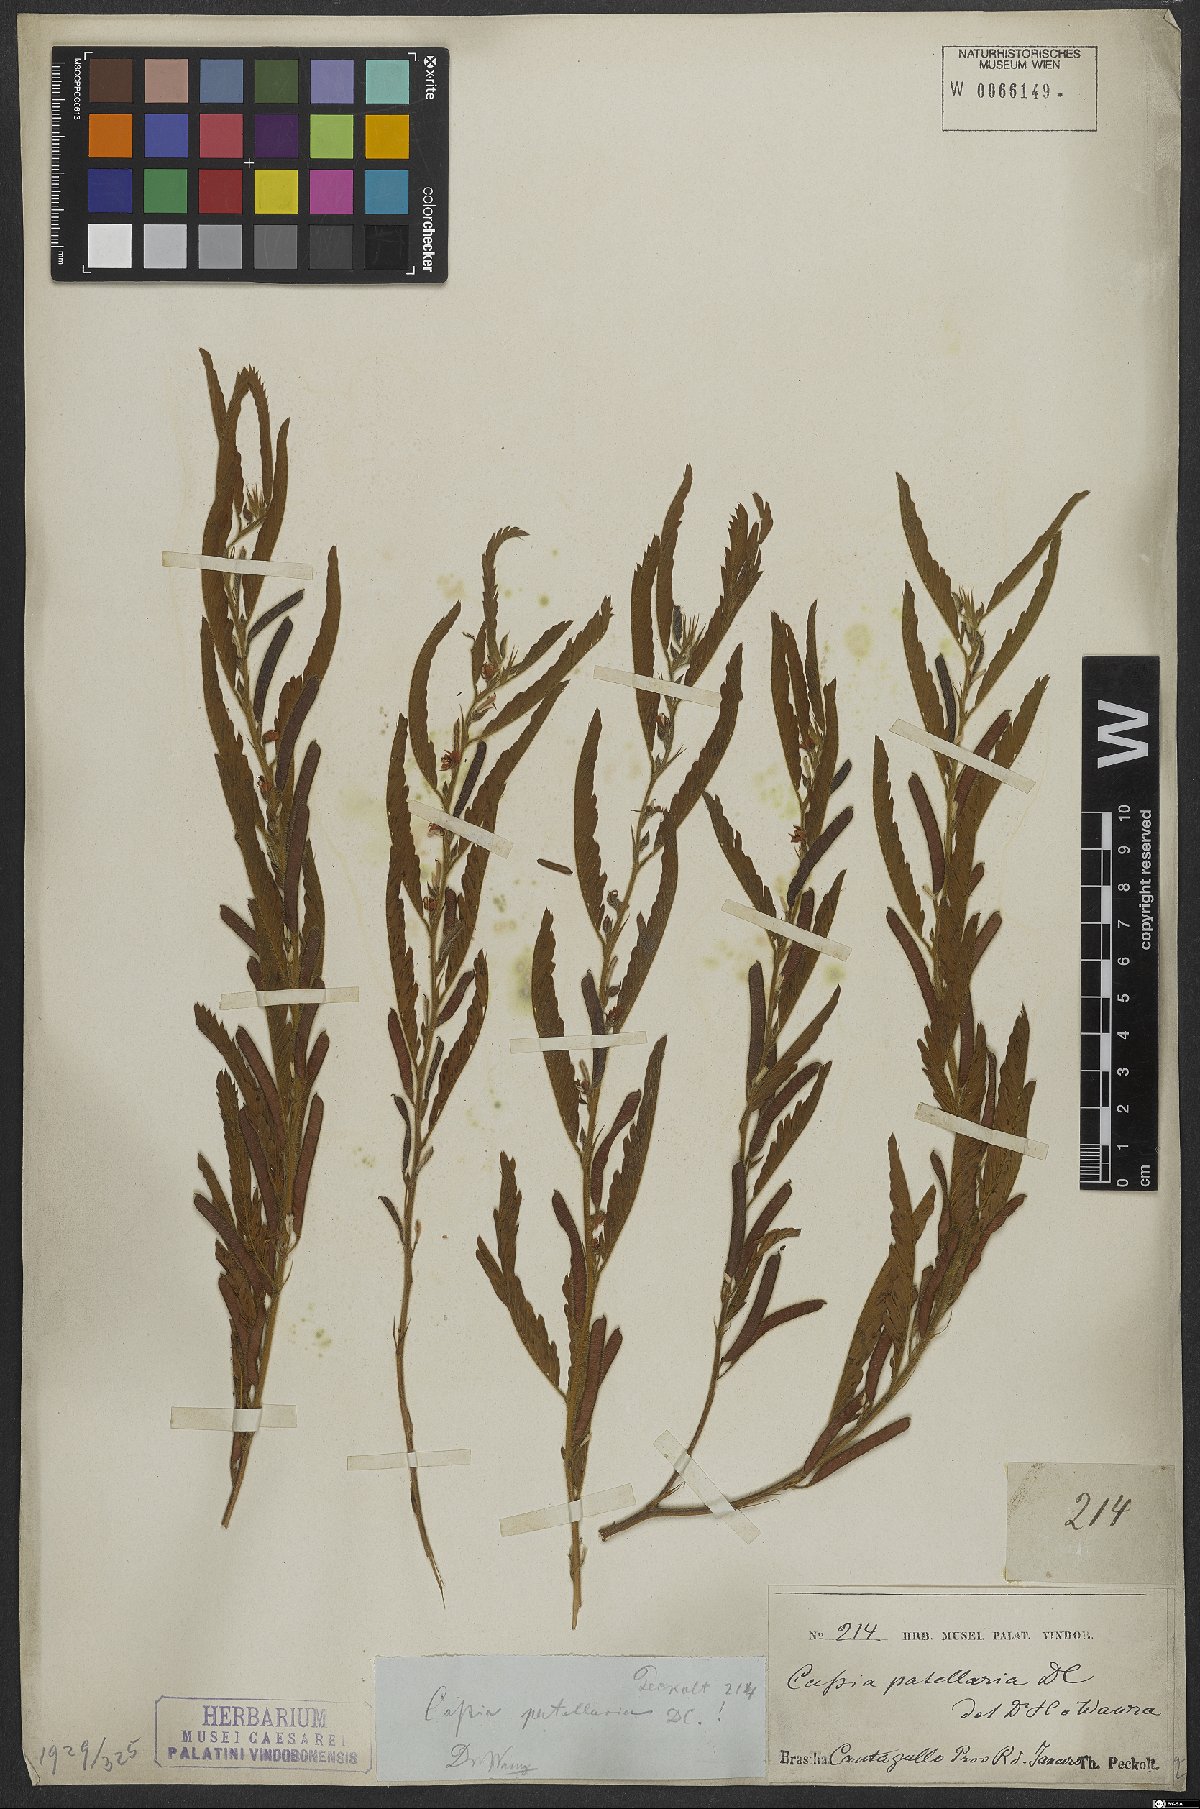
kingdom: Plantae
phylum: Tracheophyta
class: Magnoliopsida
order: Fabales
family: Fabaceae
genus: Chamaecrista
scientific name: Chamaecrista nictitans
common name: Sensitive cassia
